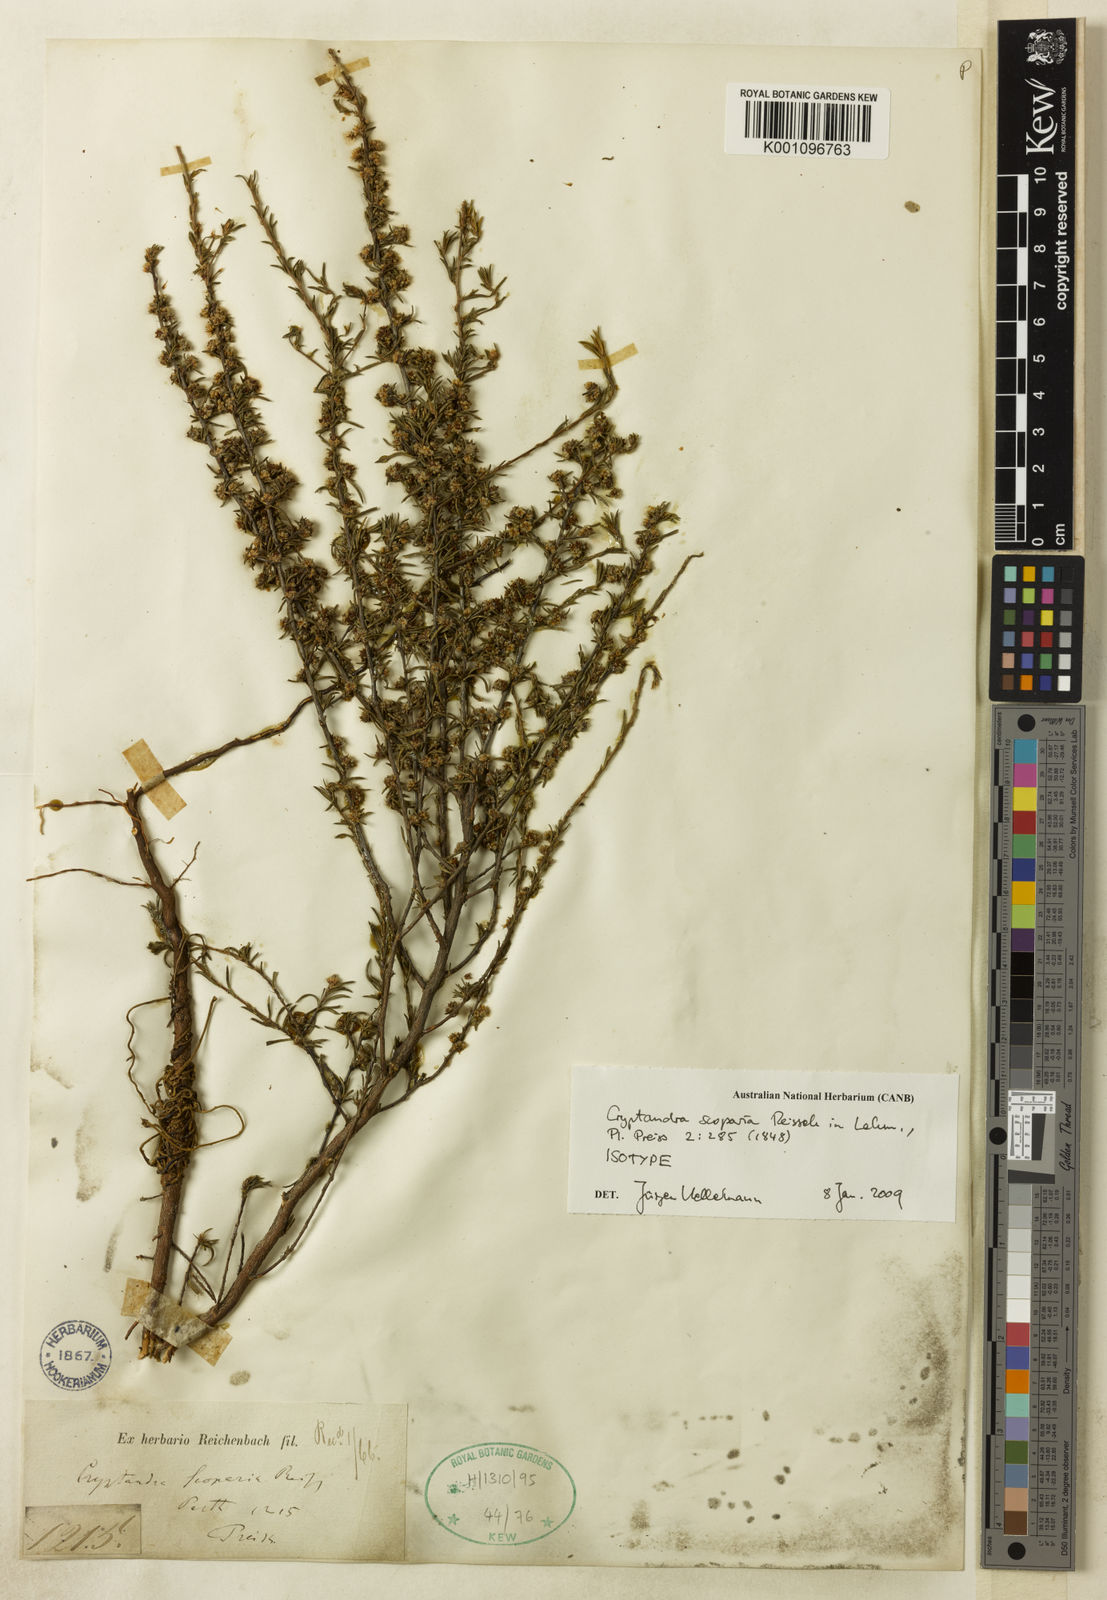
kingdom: Plantae
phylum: Tracheophyta
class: Magnoliopsida
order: Rosales
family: Rhamnaceae
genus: Cryptandra
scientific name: Cryptandra scoparia
